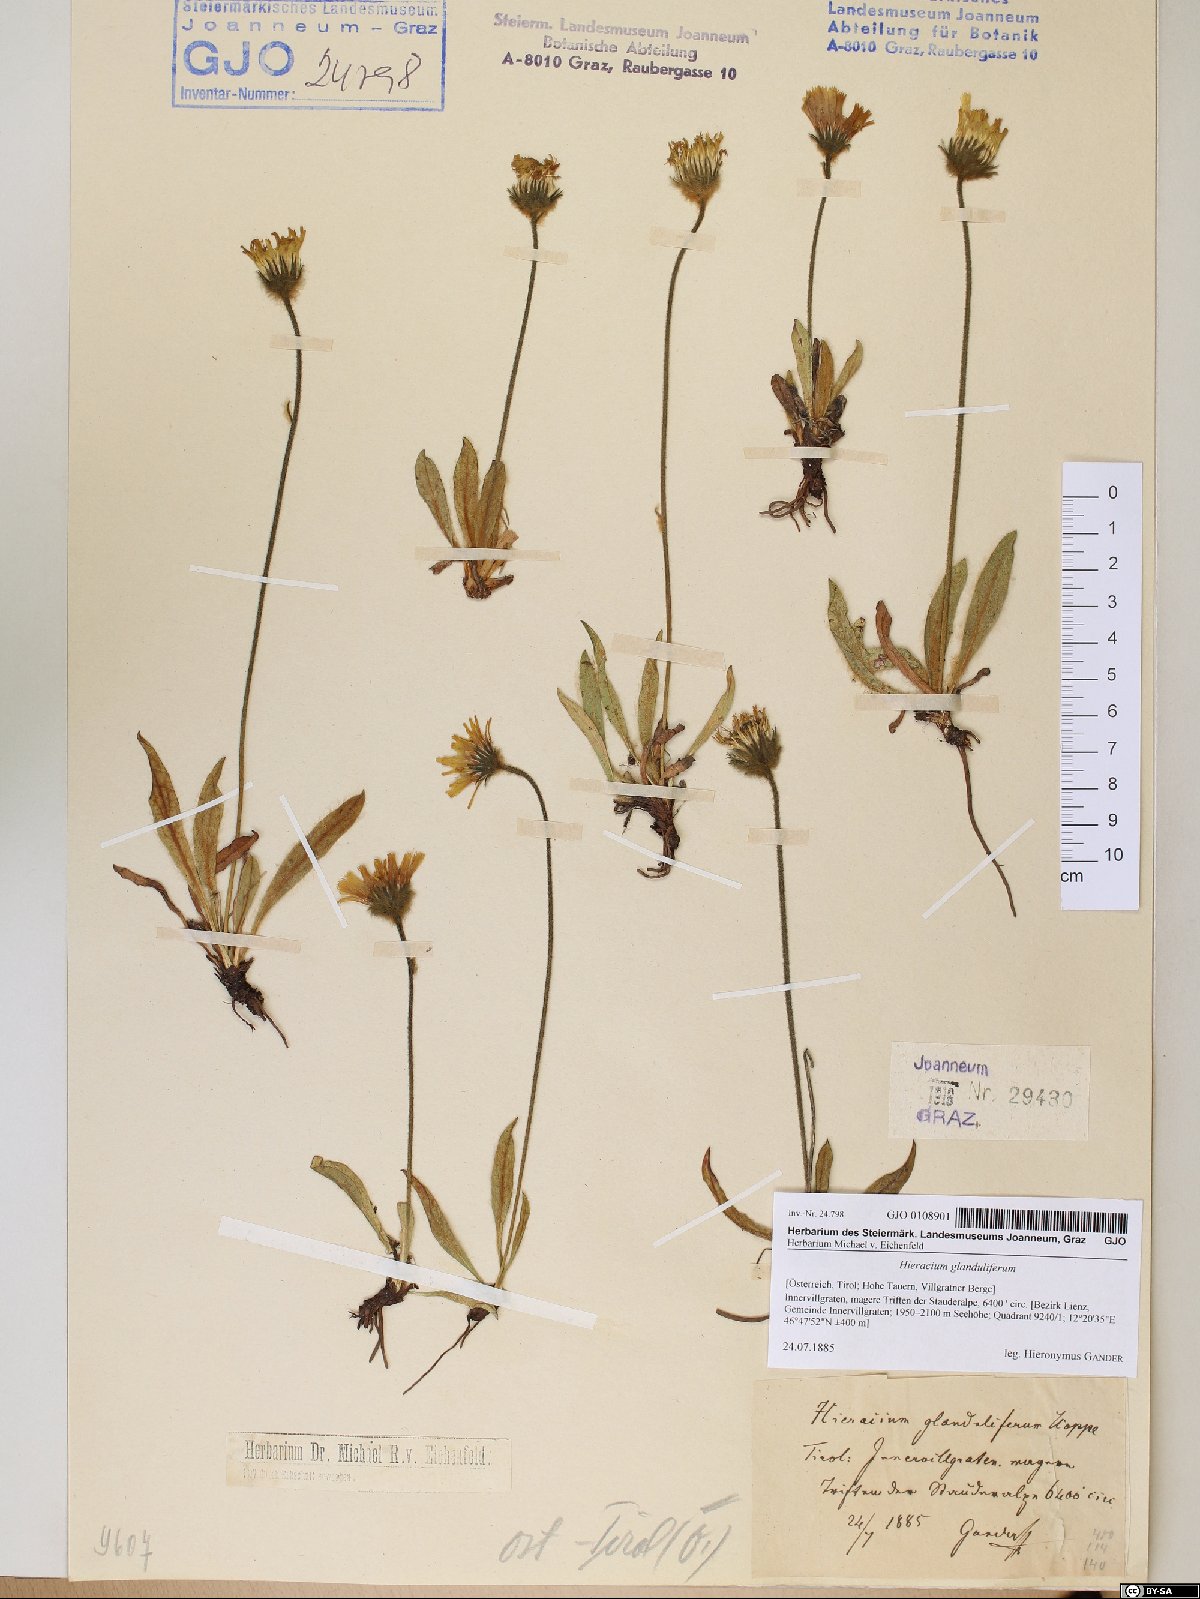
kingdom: Plantae
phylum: Tracheophyta
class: Magnoliopsida
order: Asterales
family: Asteraceae
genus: Hieracium
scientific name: Hieracium piliferum
